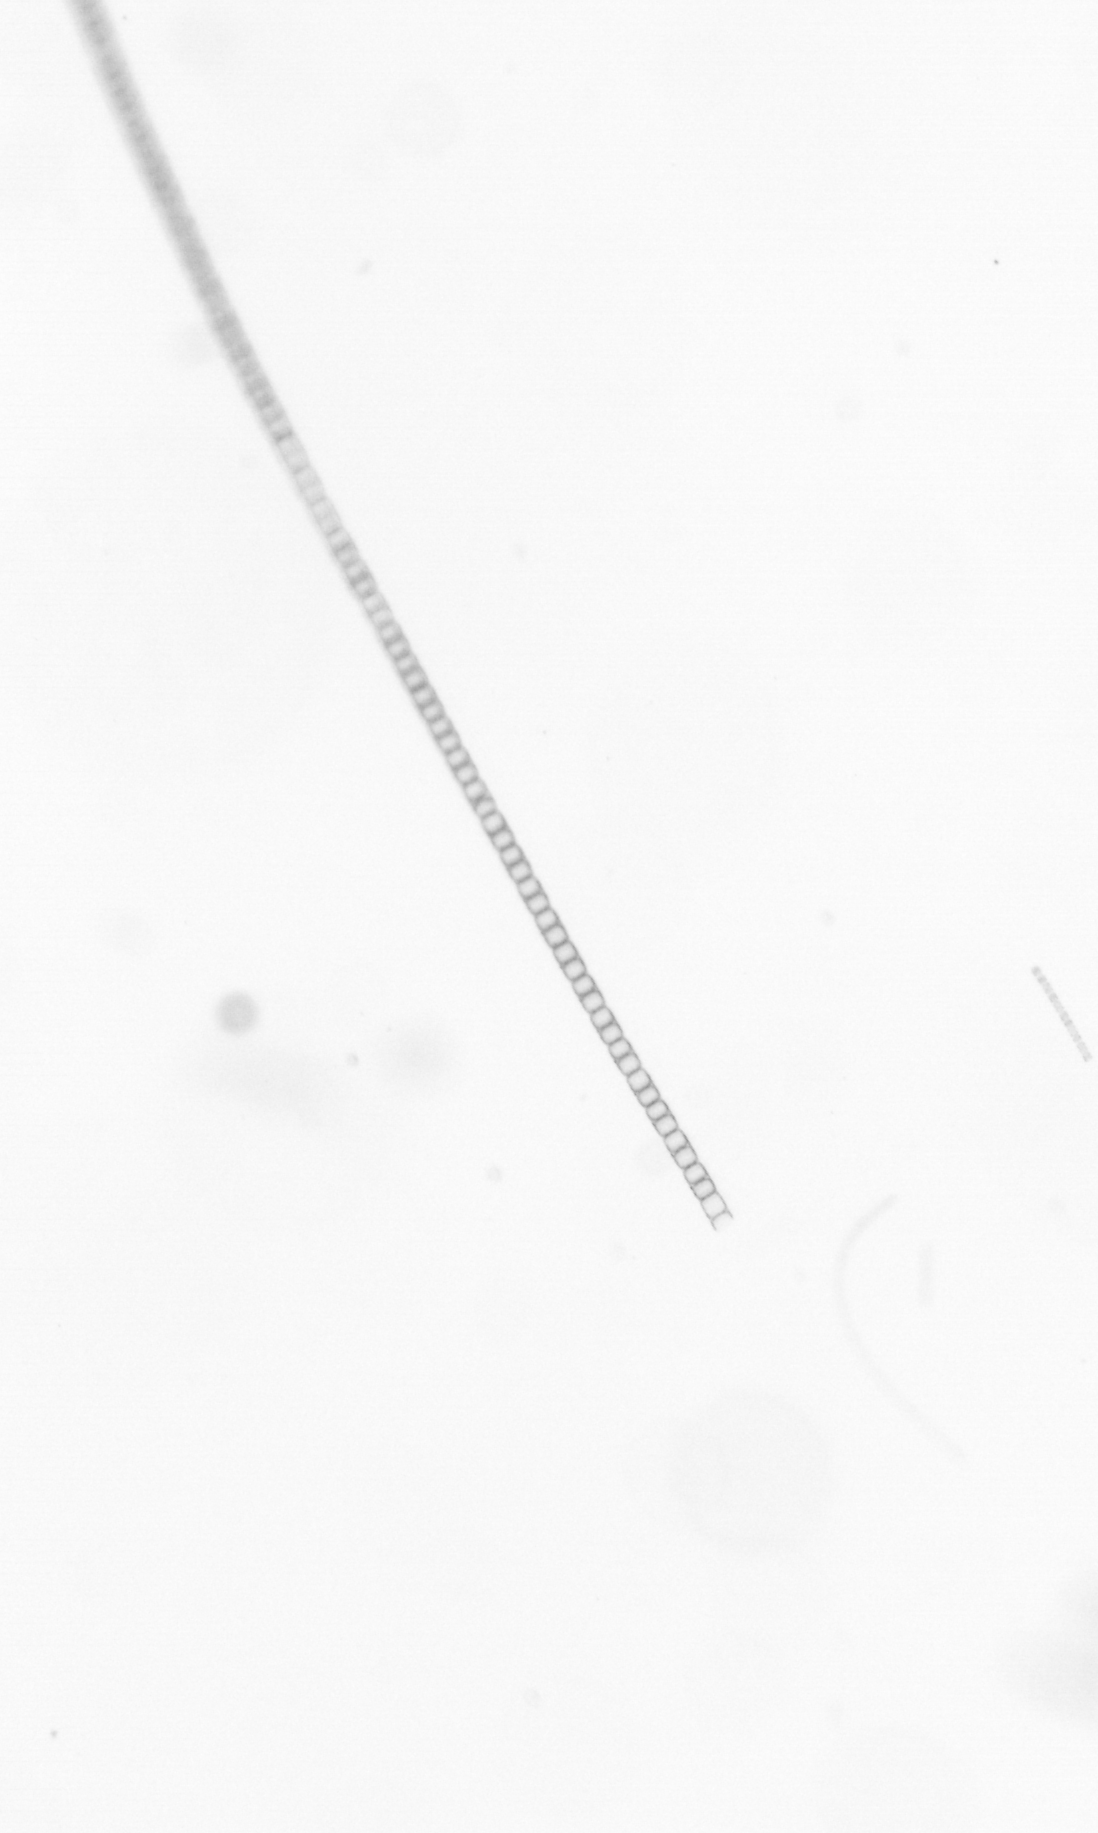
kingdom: Chromista
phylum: Ochrophyta
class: Bacillariophyceae
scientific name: Bacillariophyceae
